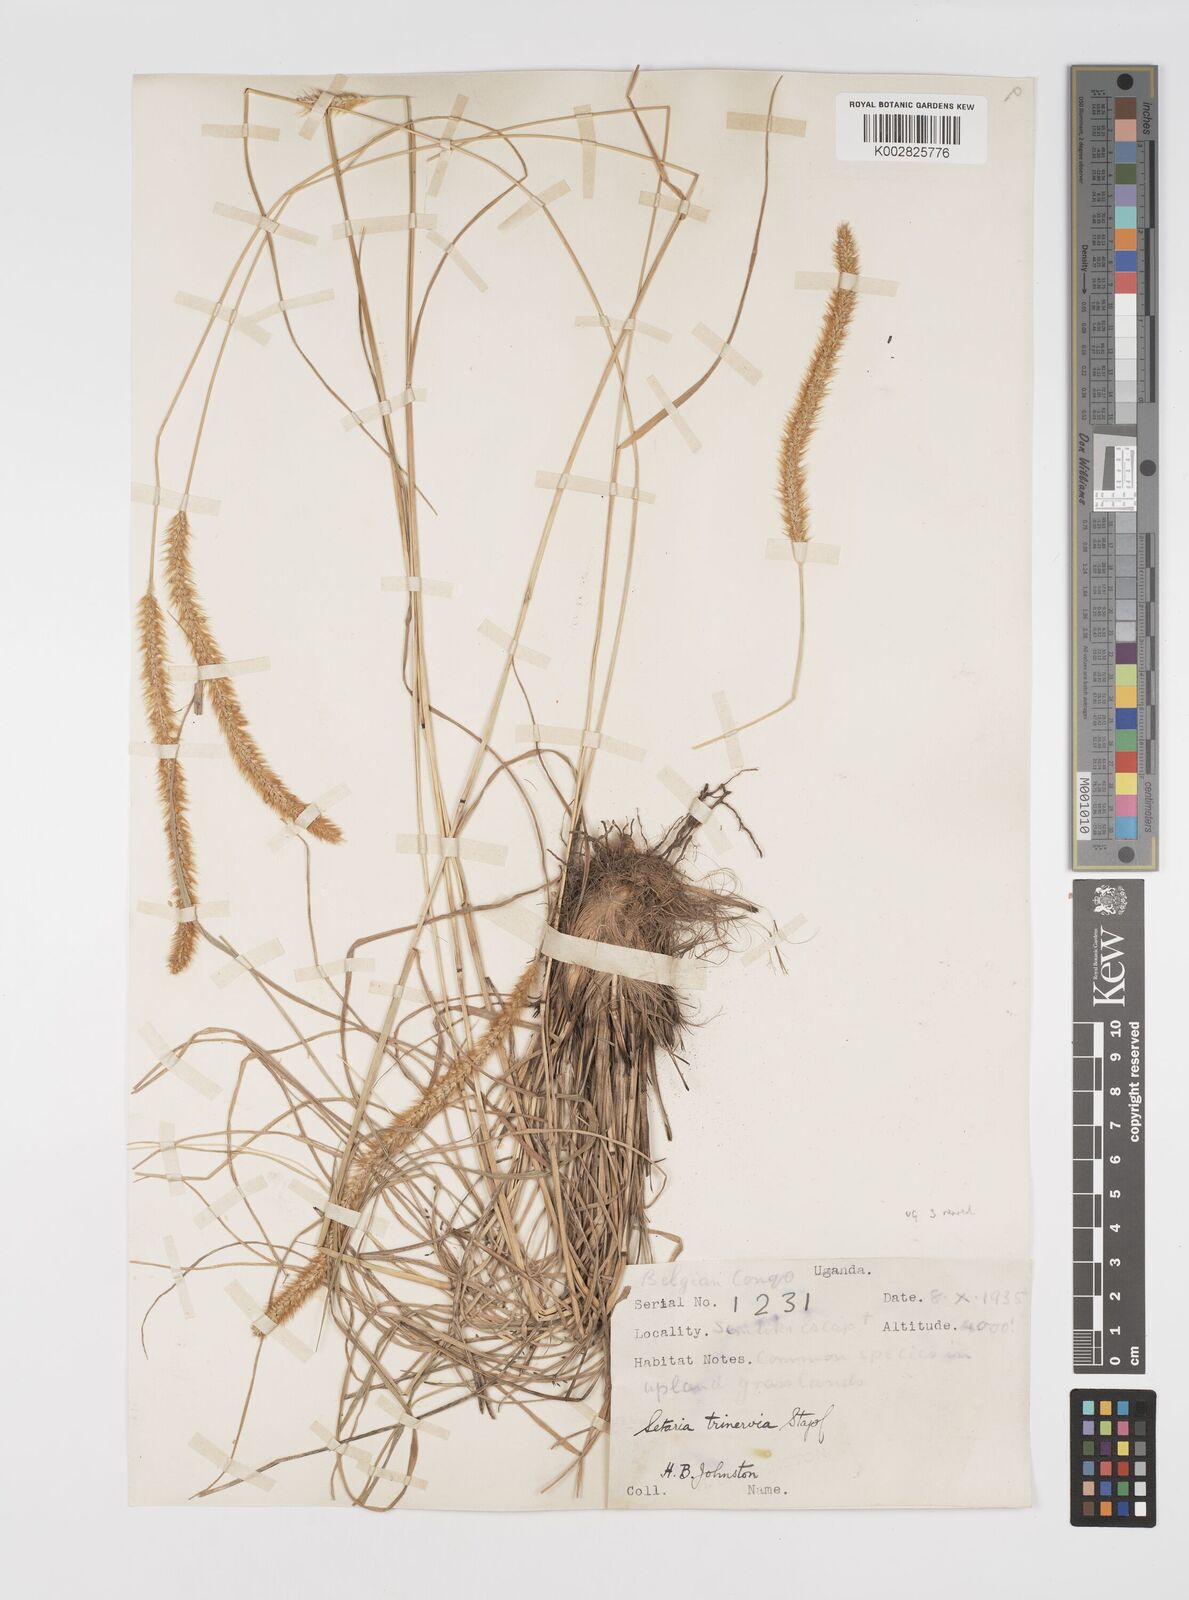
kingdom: Plantae
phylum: Tracheophyta
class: Liliopsida
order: Poales
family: Poaceae
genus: Setaria
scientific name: Setaria sphacelata
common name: African bristlegrass
